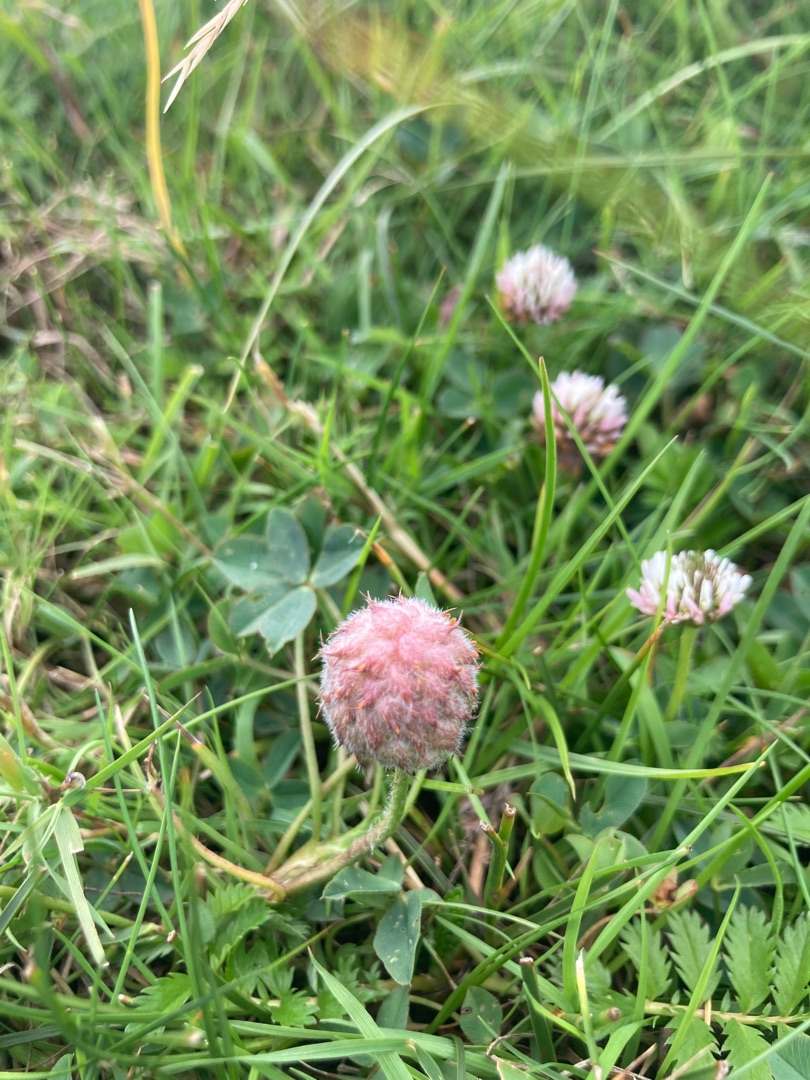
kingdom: Plantae
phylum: Tracheophyta
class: Magnoliopsida
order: Fabales
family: Fabaceae
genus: Trifolium
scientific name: Trifolium fragiferum
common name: Jordbær-kløver
